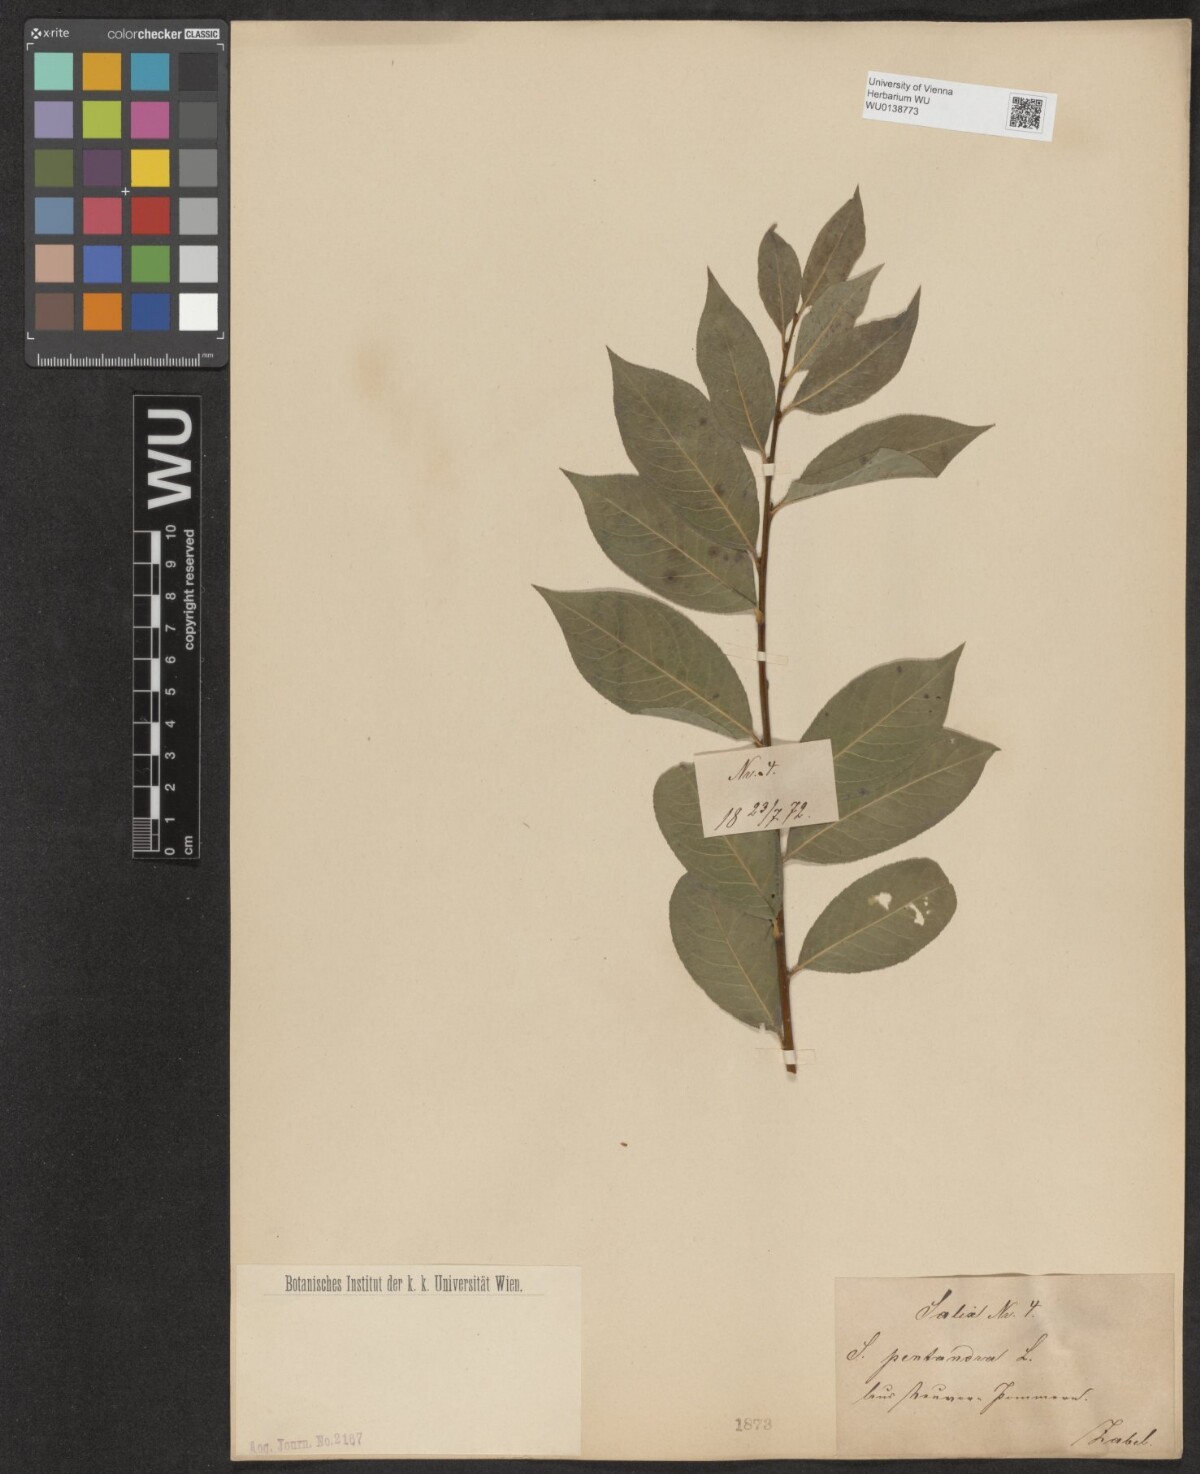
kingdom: Plantae
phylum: Tracheophyta
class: Magnoliopsida
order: Malpighiales
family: Salicaceae
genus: Salix
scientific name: Salix pentandra
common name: Bay willow
